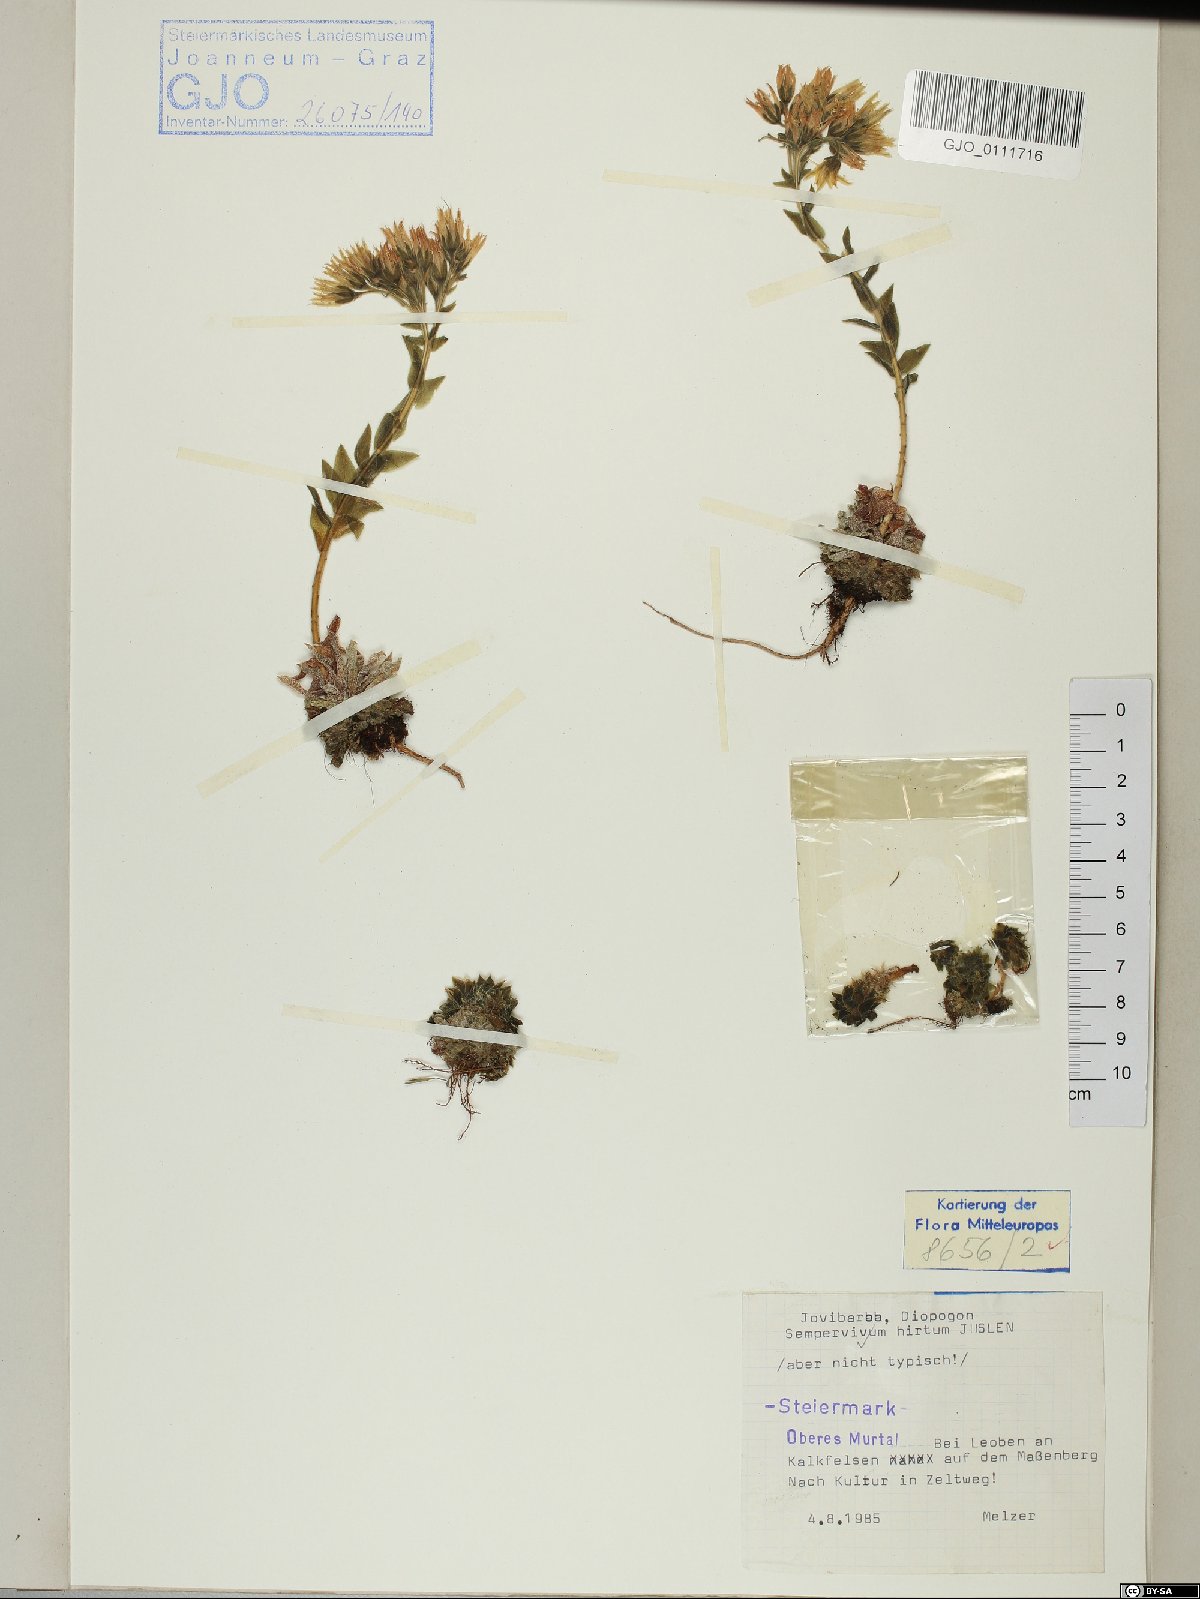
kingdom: Plantae
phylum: Tracheophyta
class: Magnoliopsida
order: Saxifragales
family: Crassulaceae
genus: Sempervivum
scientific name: Sempervivum globiferum
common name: Rolling hen-and-chicks
